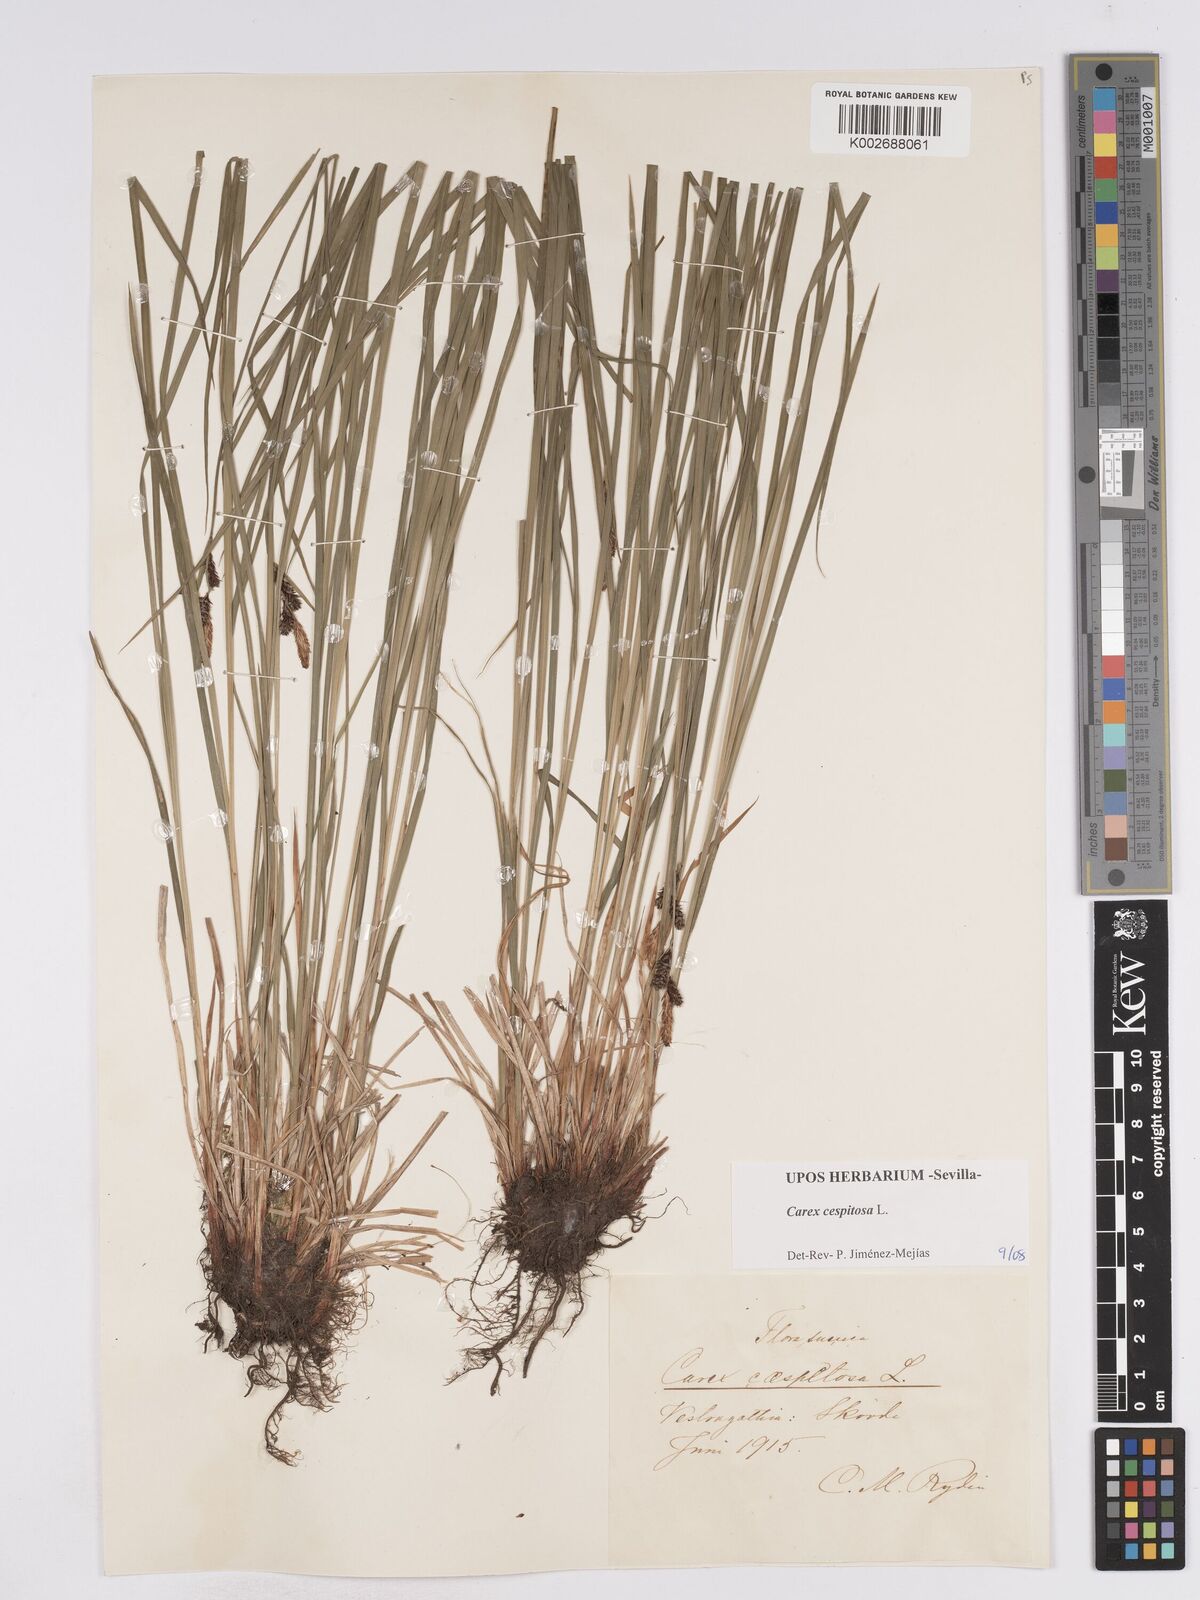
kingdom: Plantae
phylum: Tracheophyta
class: Liliopsida
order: Poales
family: Cyperaceae
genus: Carex
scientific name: Carex
